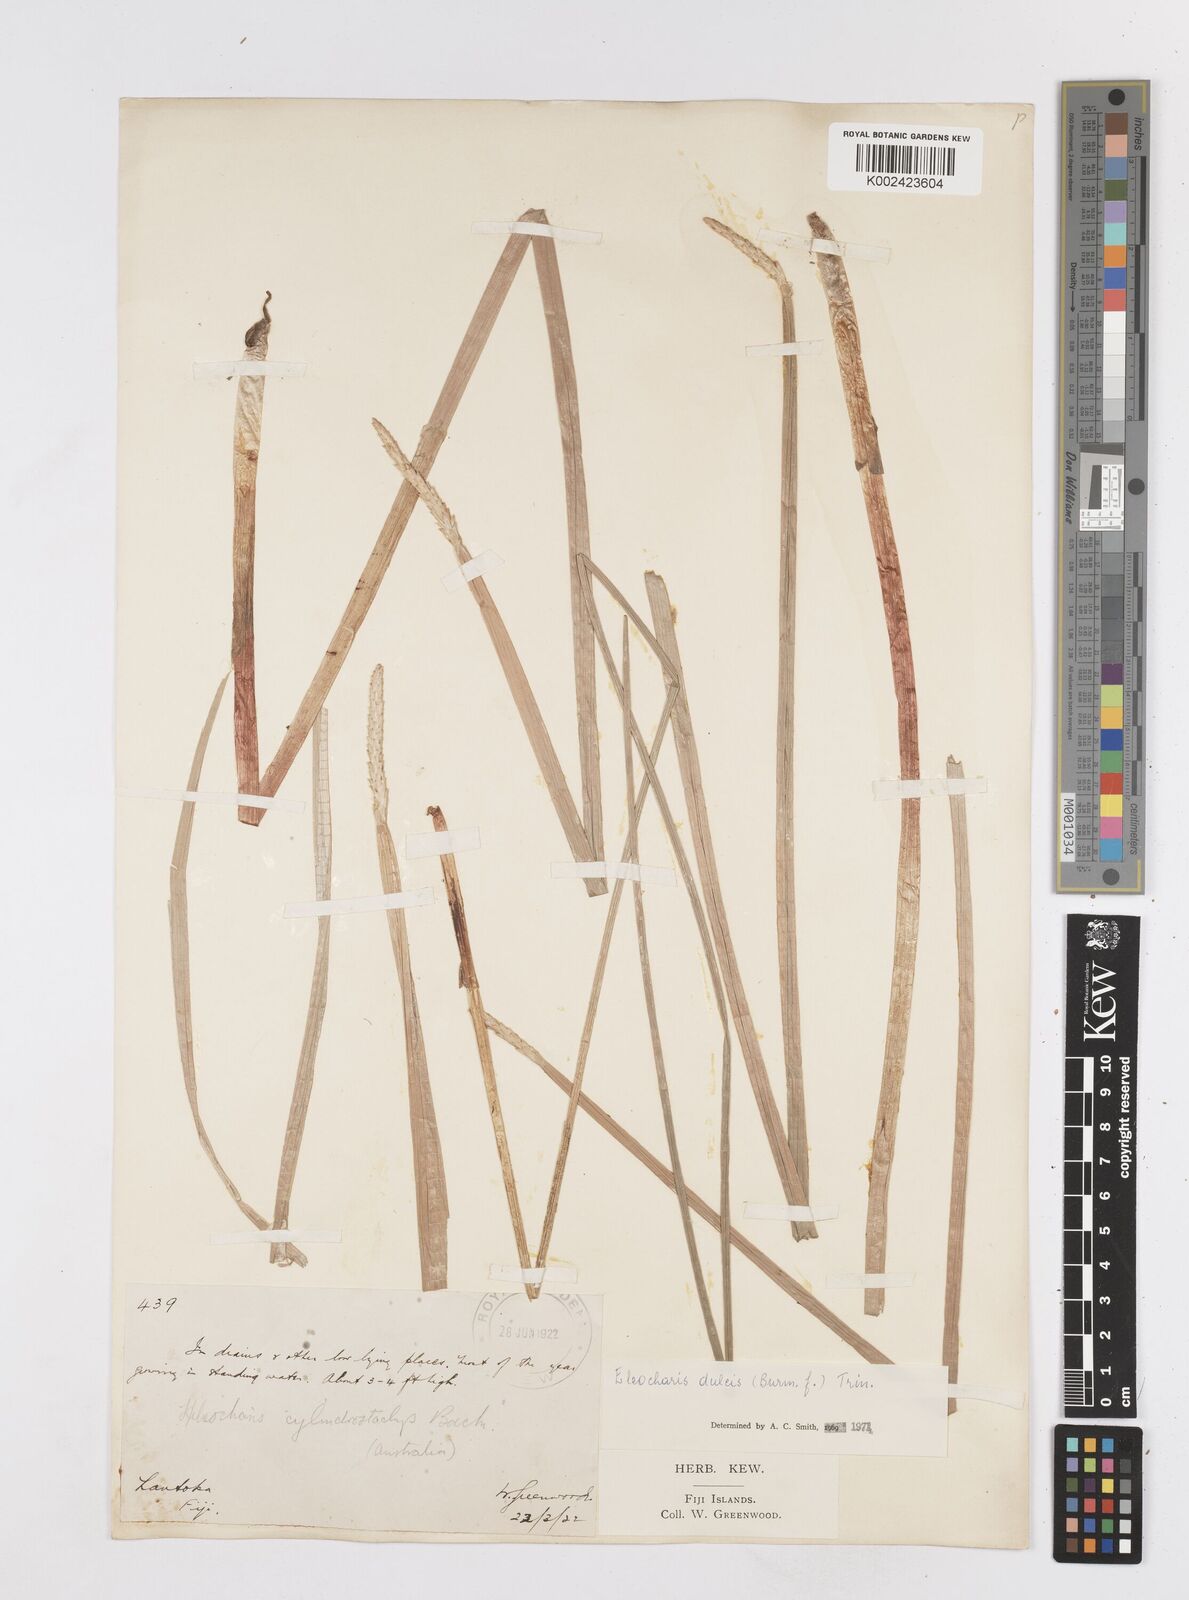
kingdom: Plantae
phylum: Tracheophyta
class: Liliopsida
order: Poales
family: Cyperaceae
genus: Eleocharis
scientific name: Eleocharis dulcis
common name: Chinese water chestnut
